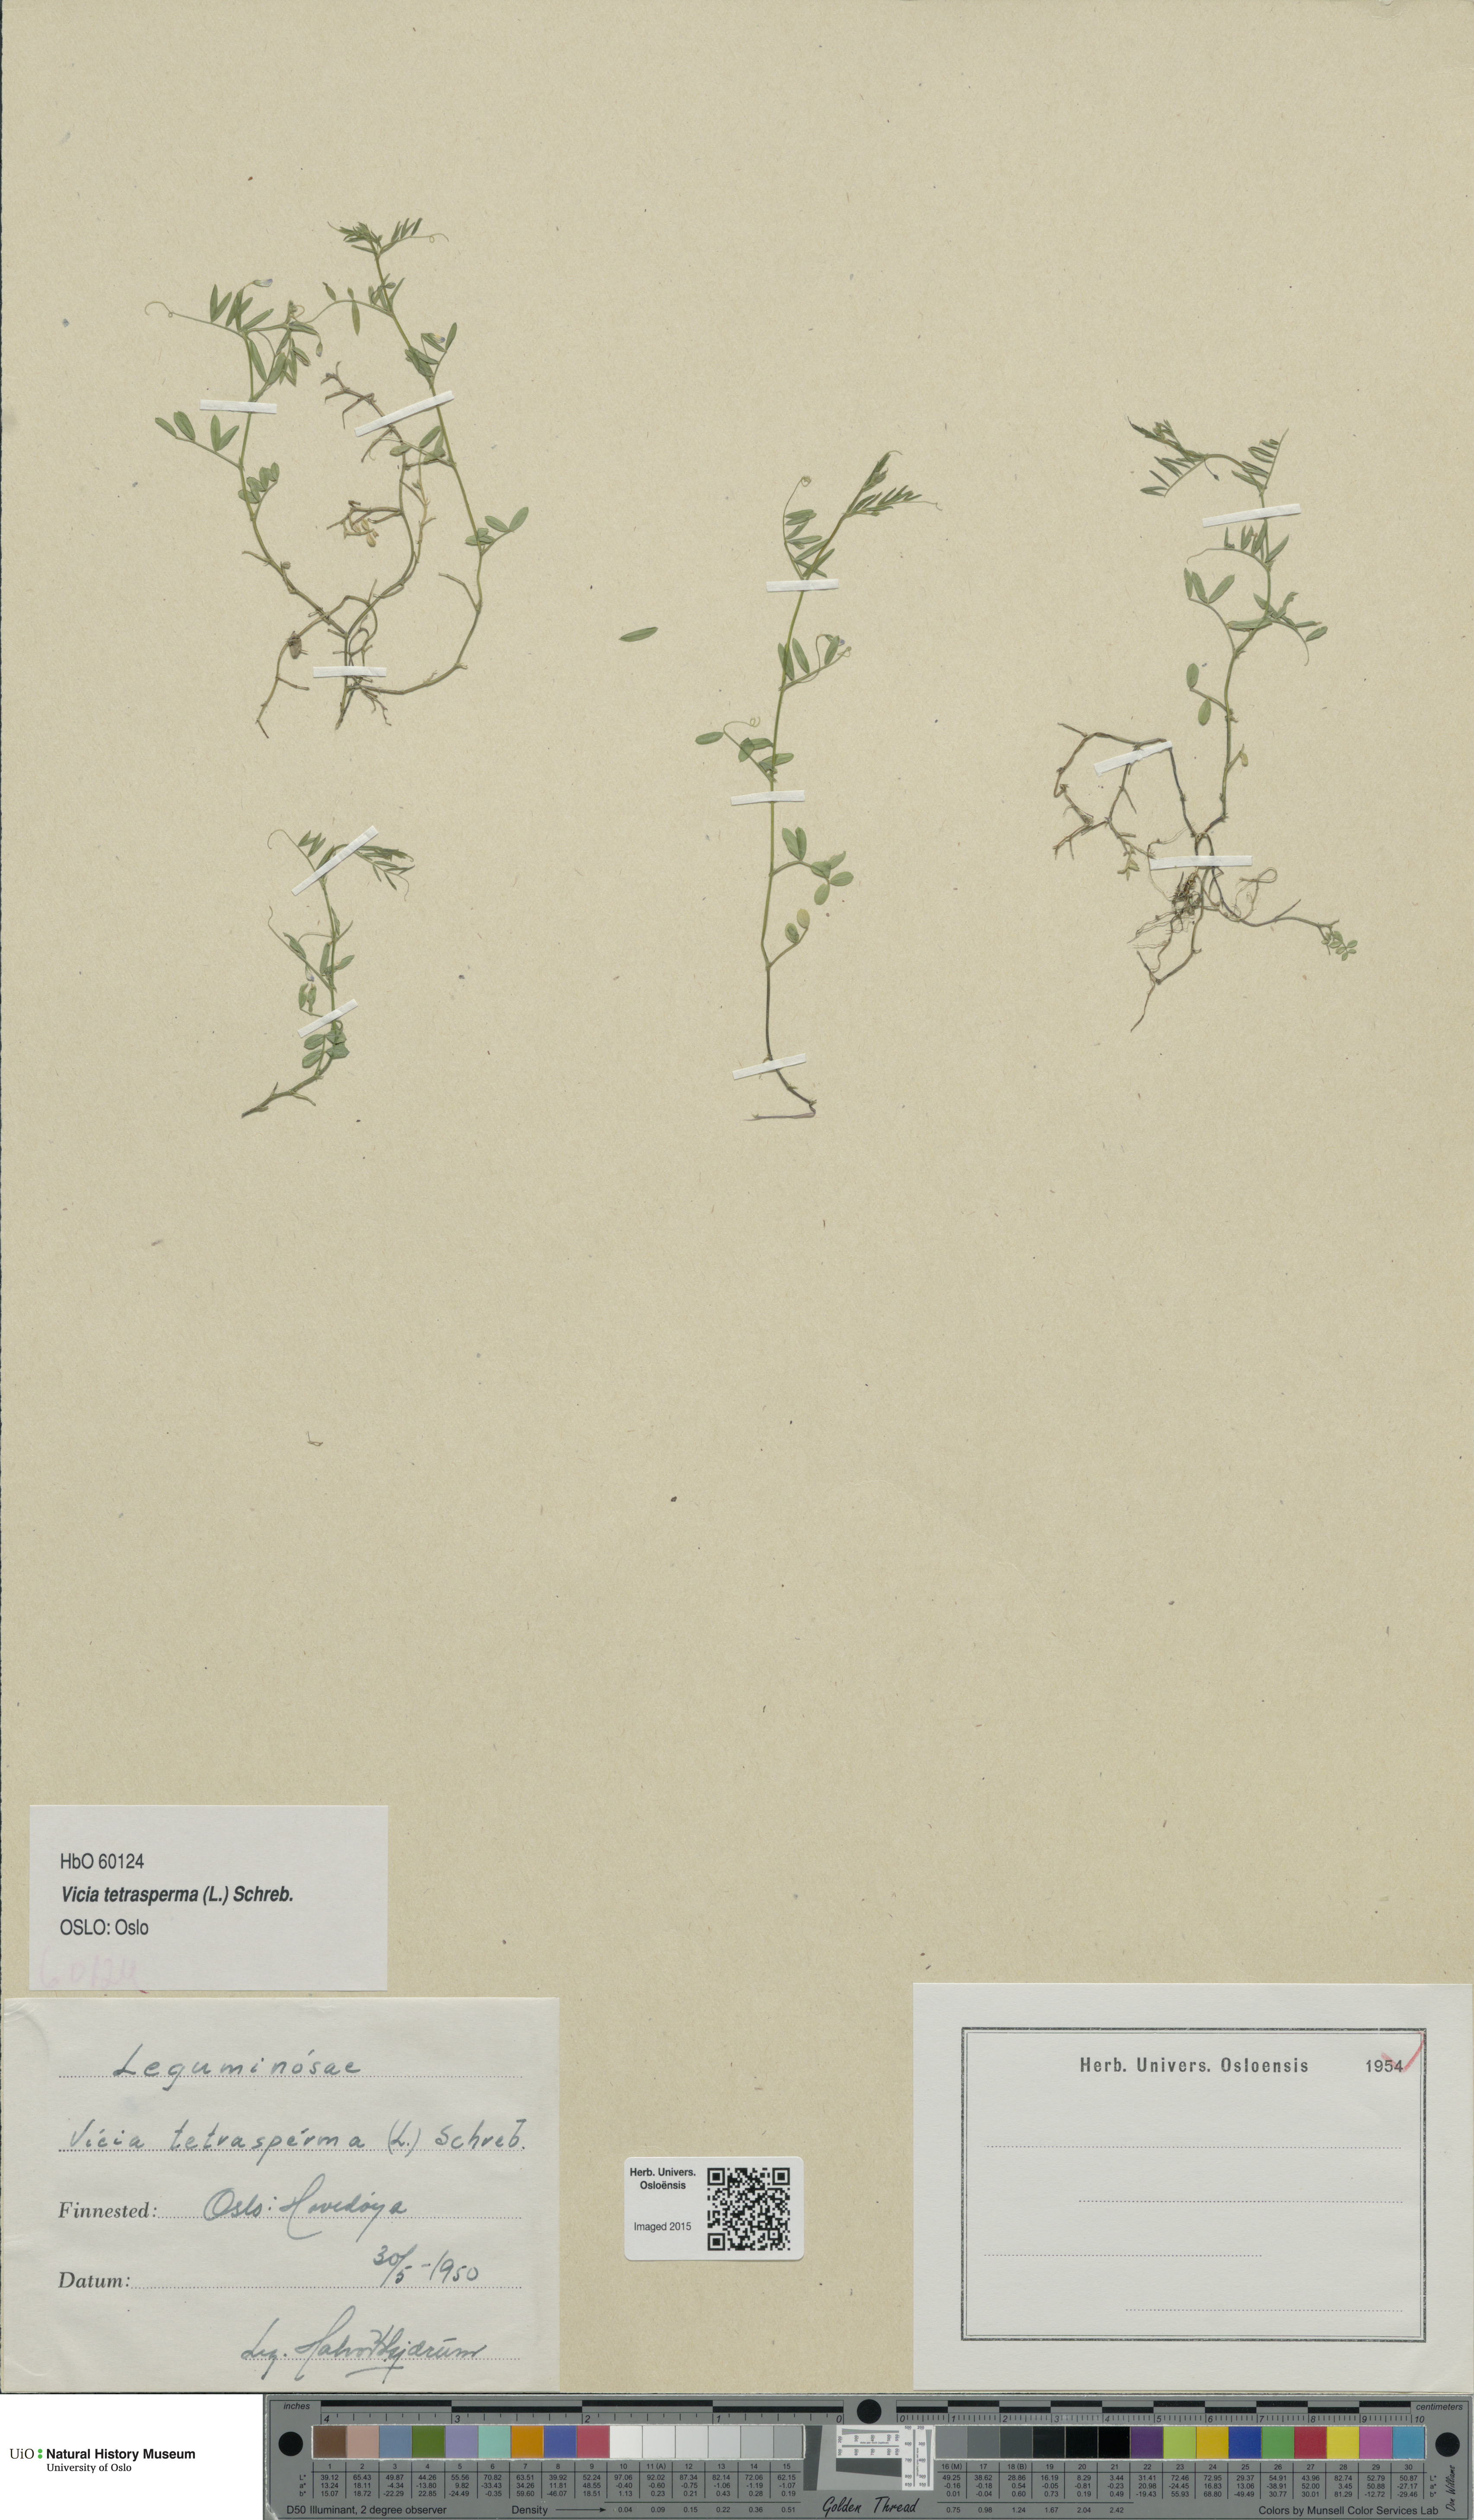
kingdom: Plantae
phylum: Tracheophyta
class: Magnoliopsida
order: Fabales
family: Fabaceae
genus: Vicia
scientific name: Vicia tetrasperma
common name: Smooth tare
